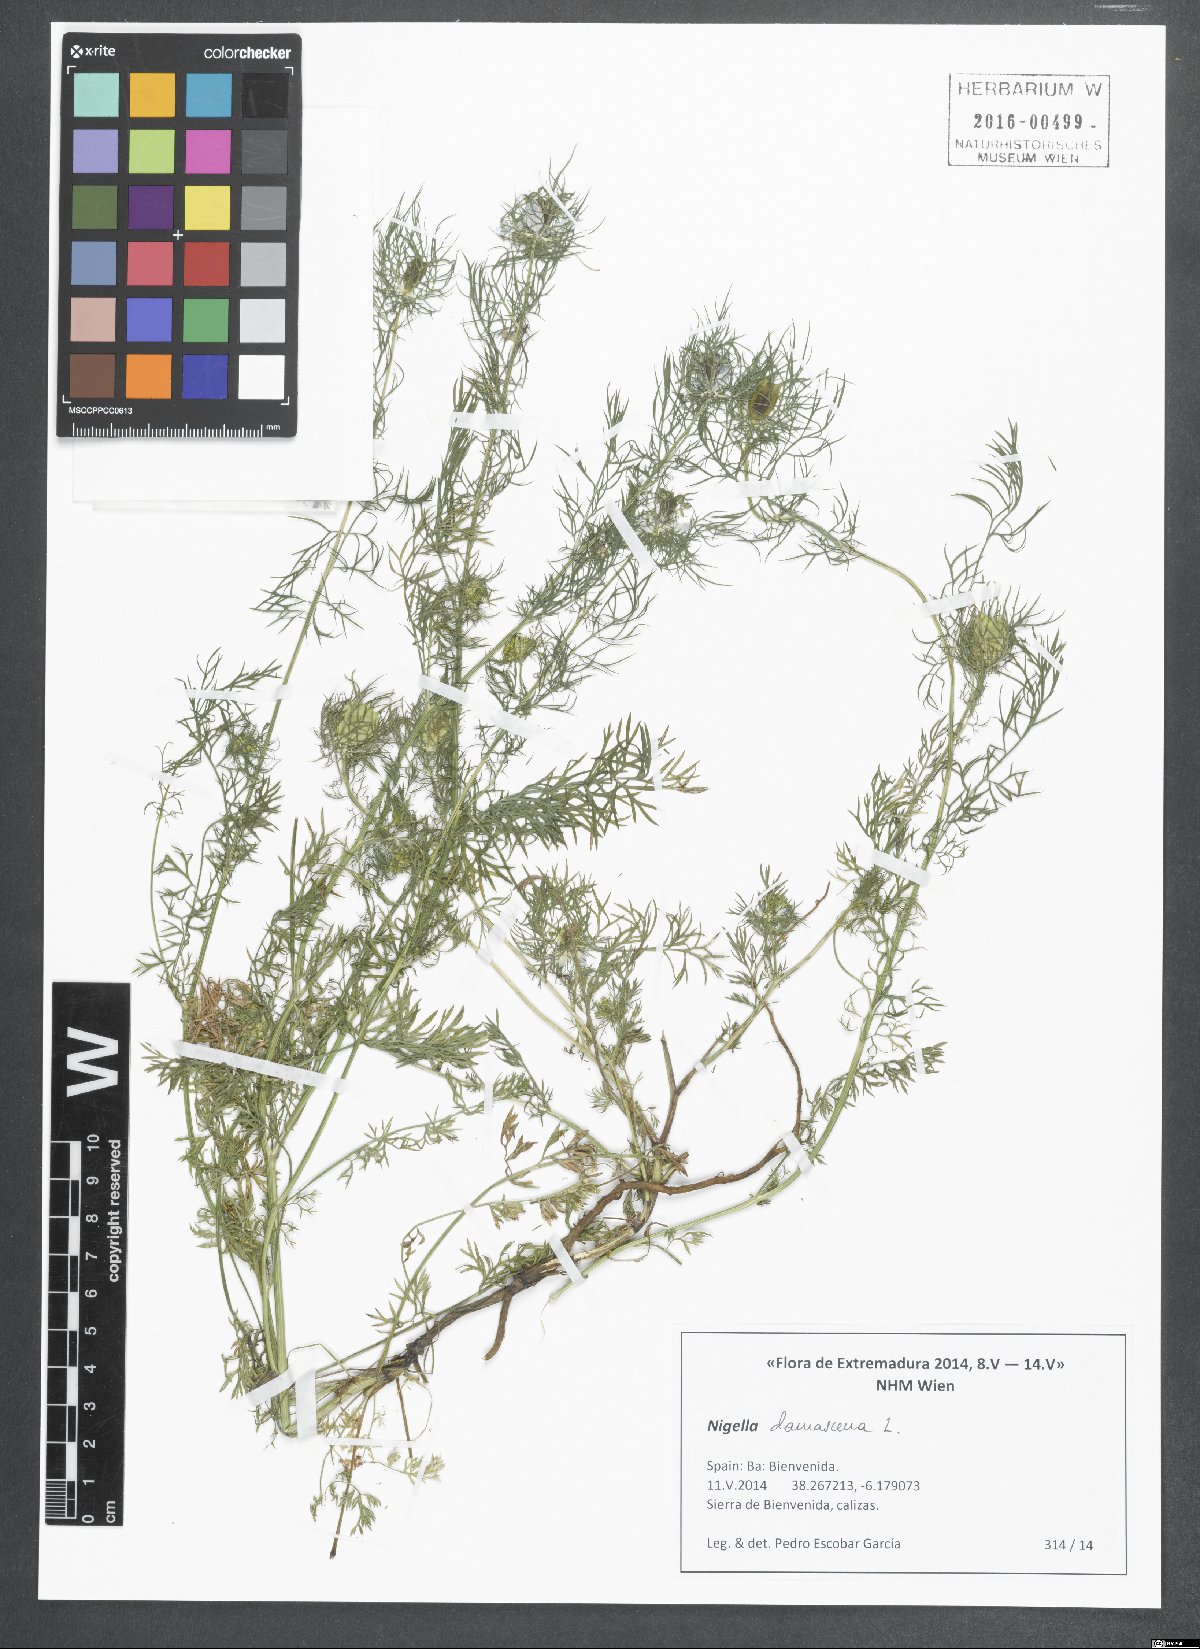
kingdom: Plantae
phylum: Tracheophyta
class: Magnoliopsida
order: Ranunculales
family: Ranunculaceae
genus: Nigella
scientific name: Nigella damascena
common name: Love-in-a-mist
